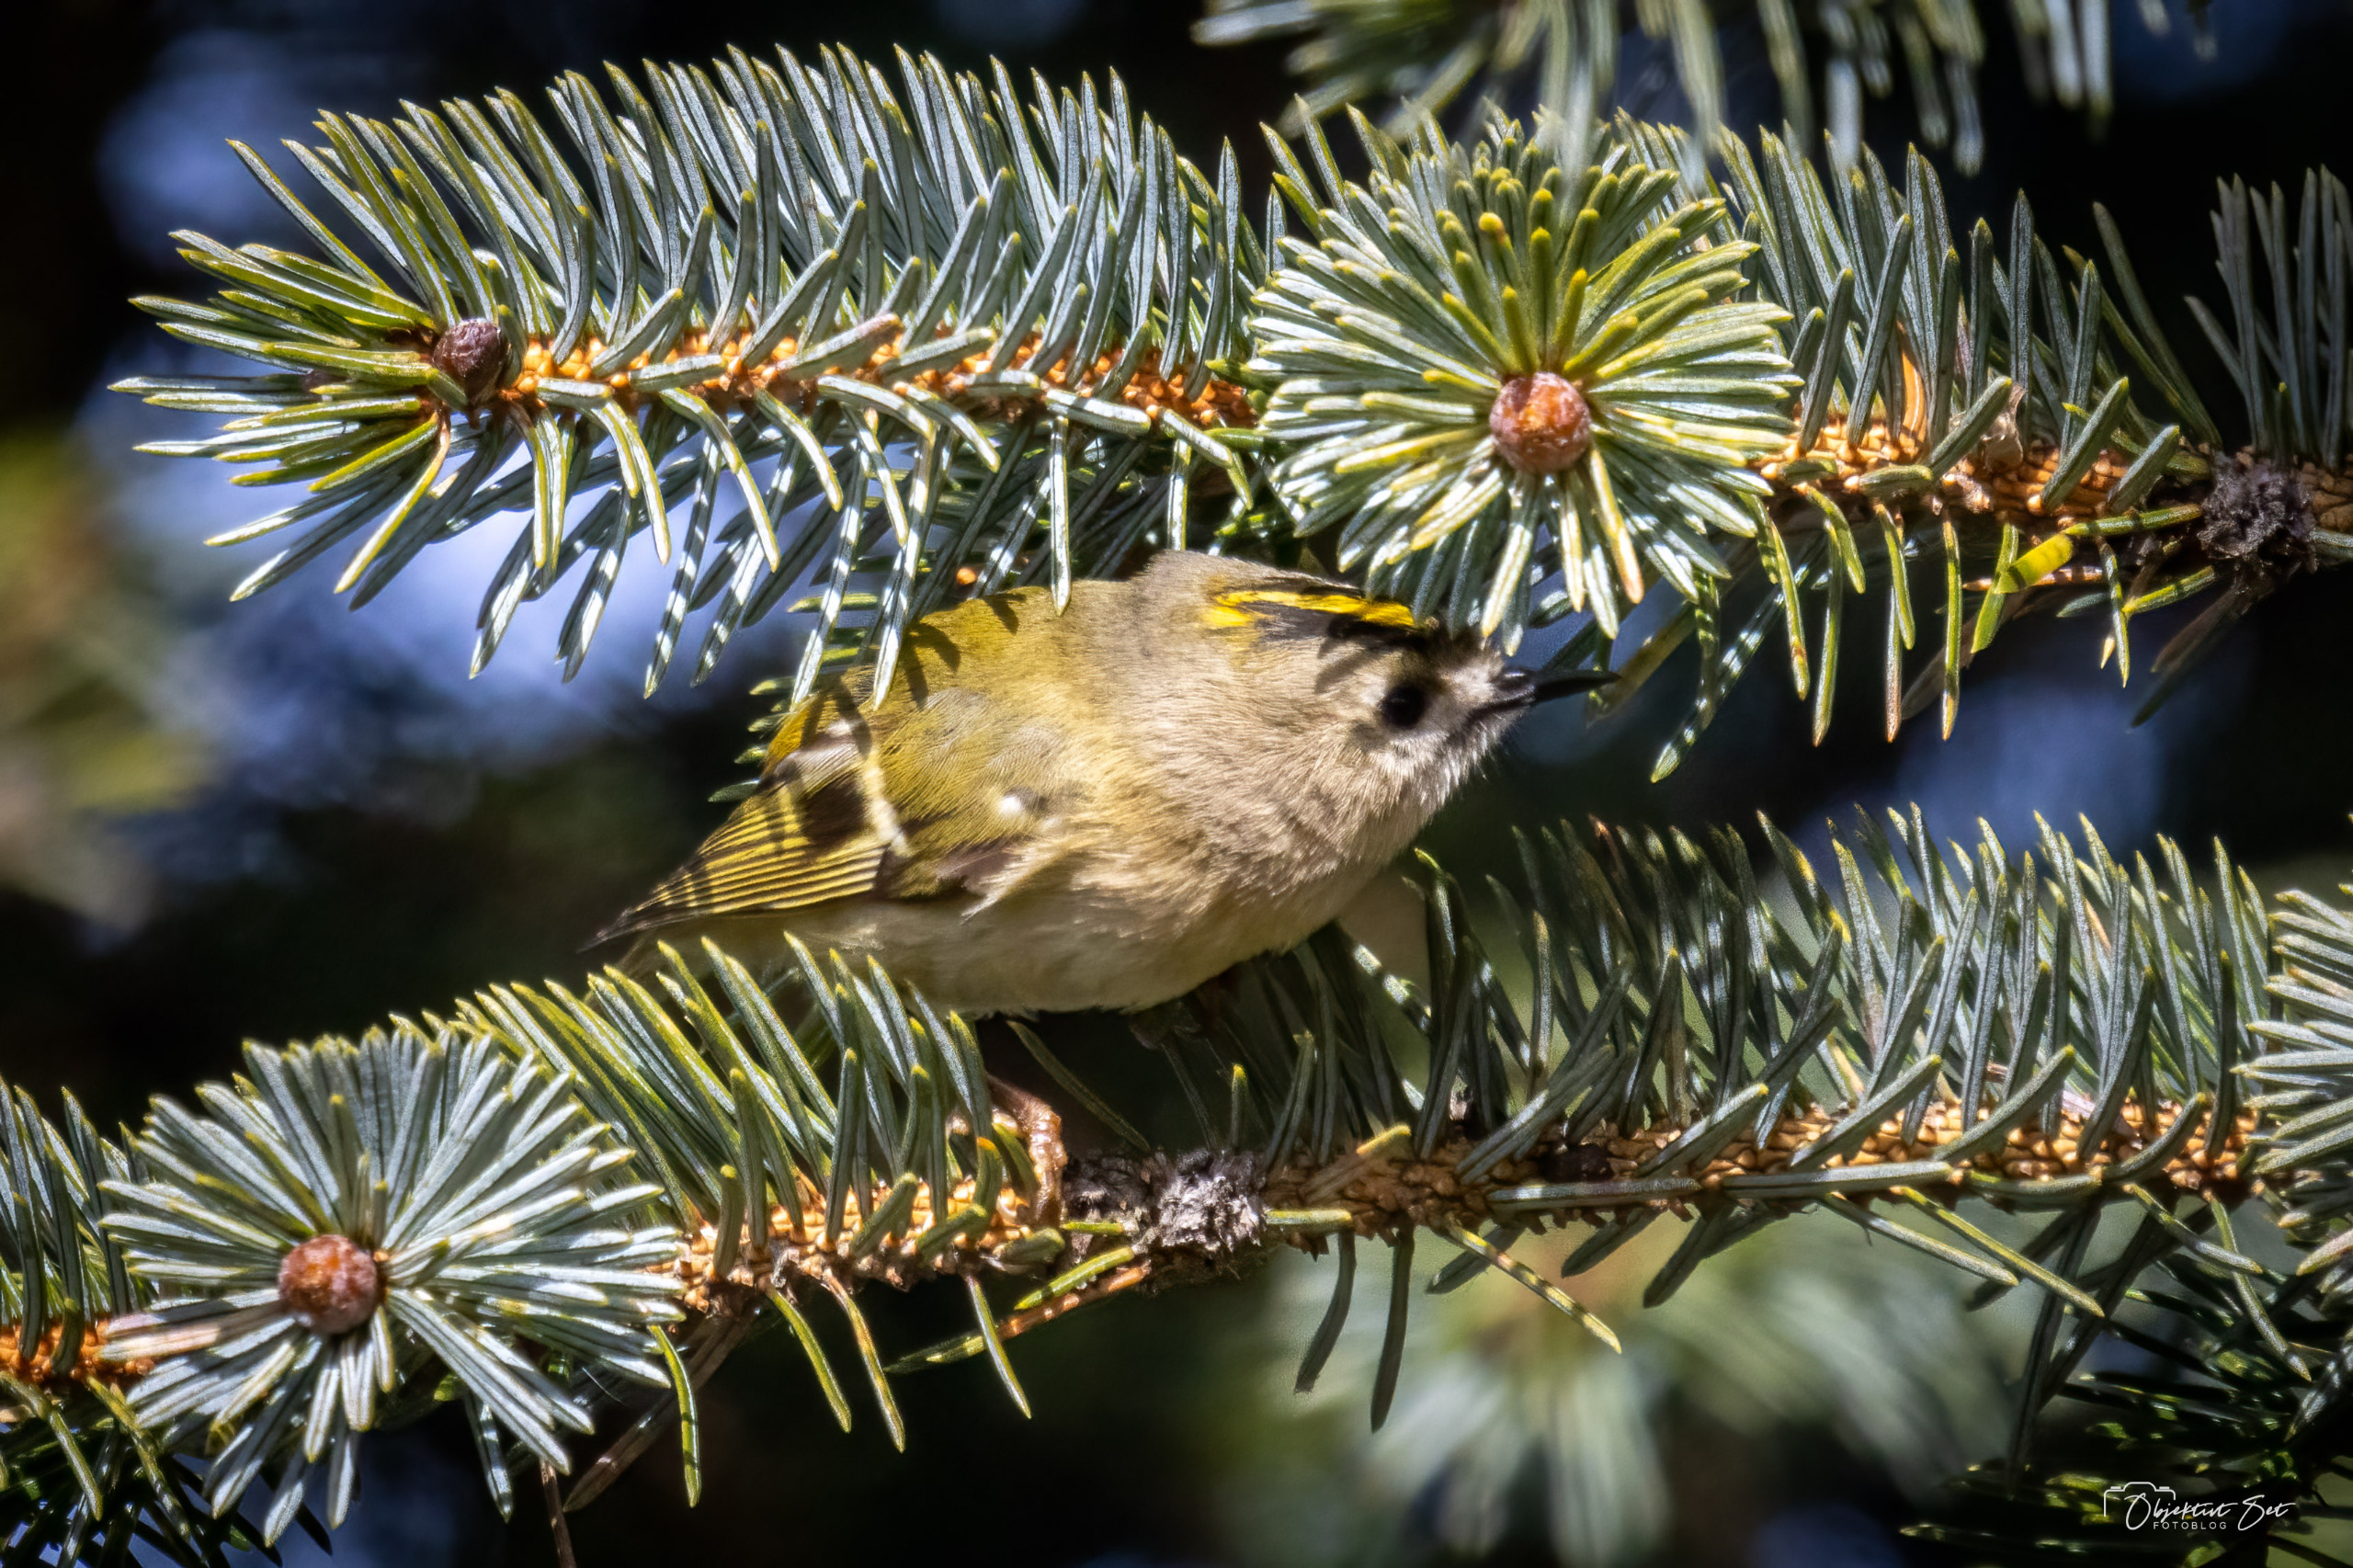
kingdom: Animalia
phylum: Chordata
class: Aves
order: Passeriformes
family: Regulidae
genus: Regulus
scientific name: Regulus regulus
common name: Fuglekonge
